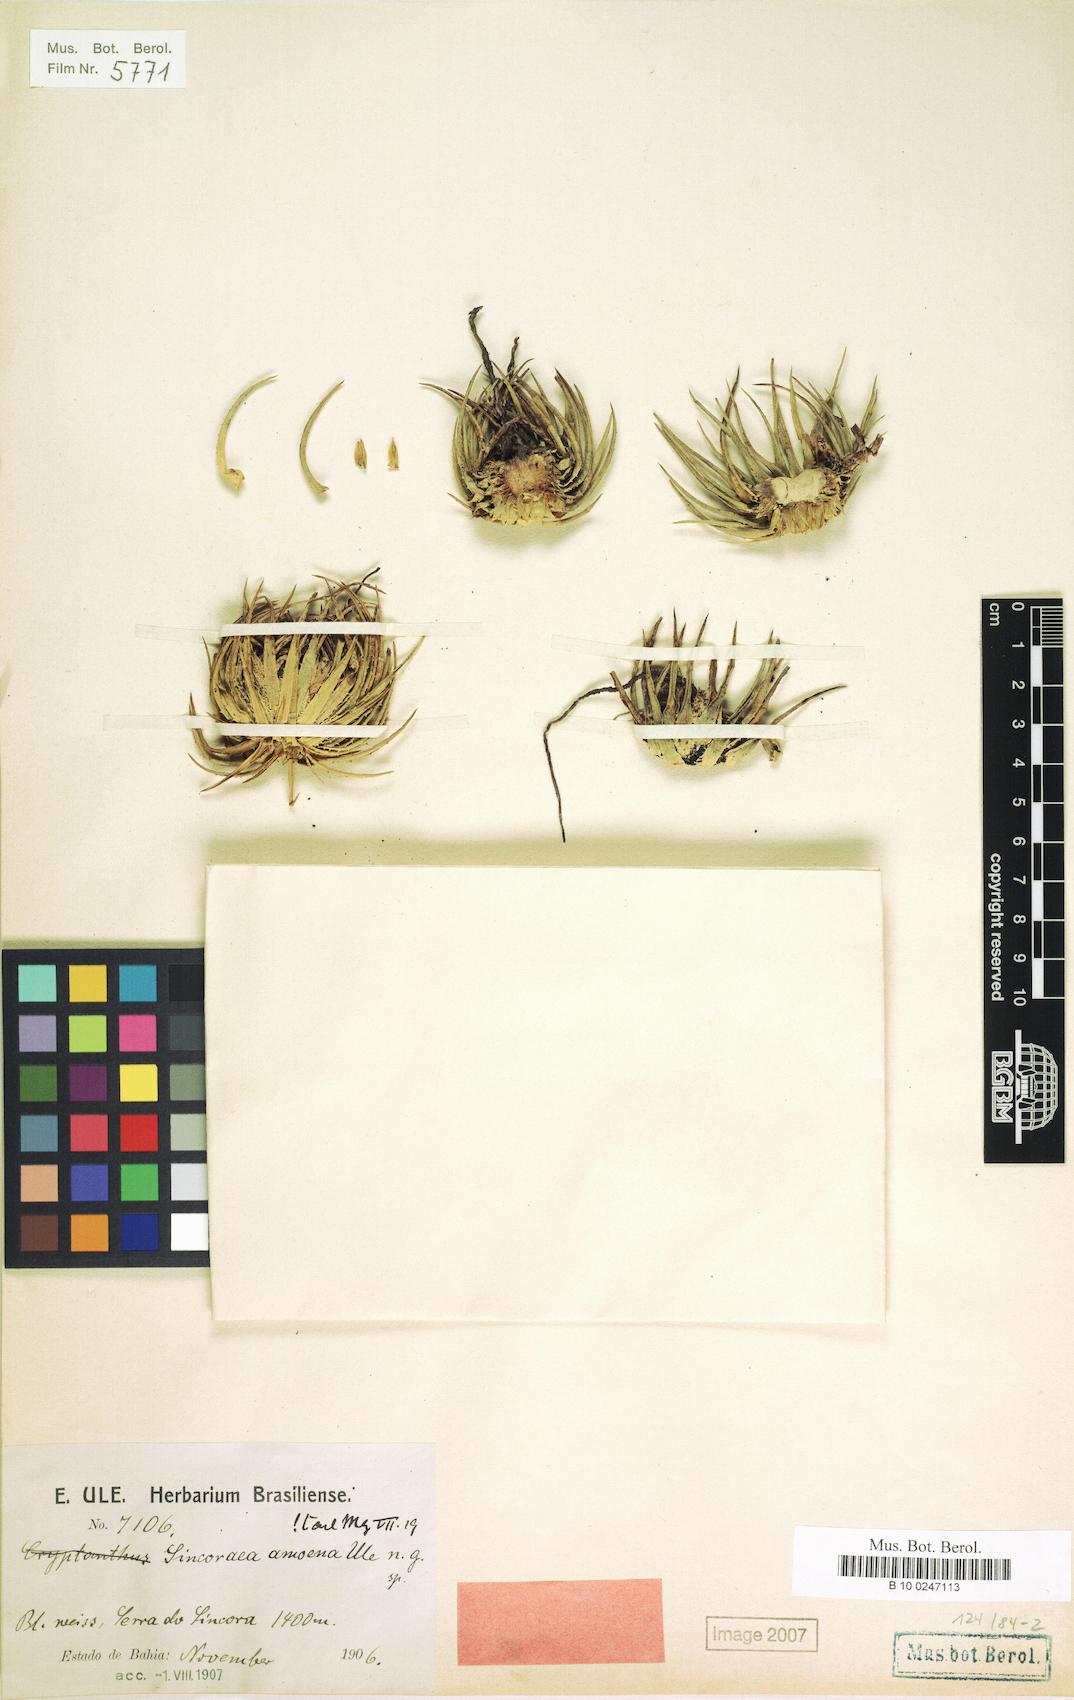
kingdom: Plantae
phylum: Tracheophyta
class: Liliopsida
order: Poales
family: Bromeliaceae
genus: Sincoraea
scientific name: Sincoraea amoena
